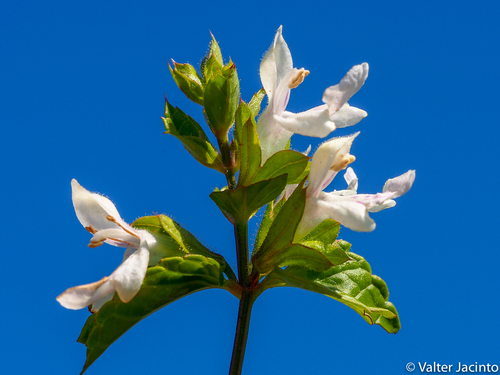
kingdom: Plantae
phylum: Tracheophyta
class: Magnoliopsida
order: Lamiales
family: Lamiaceae
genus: Prasium
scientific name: Prasium majus
